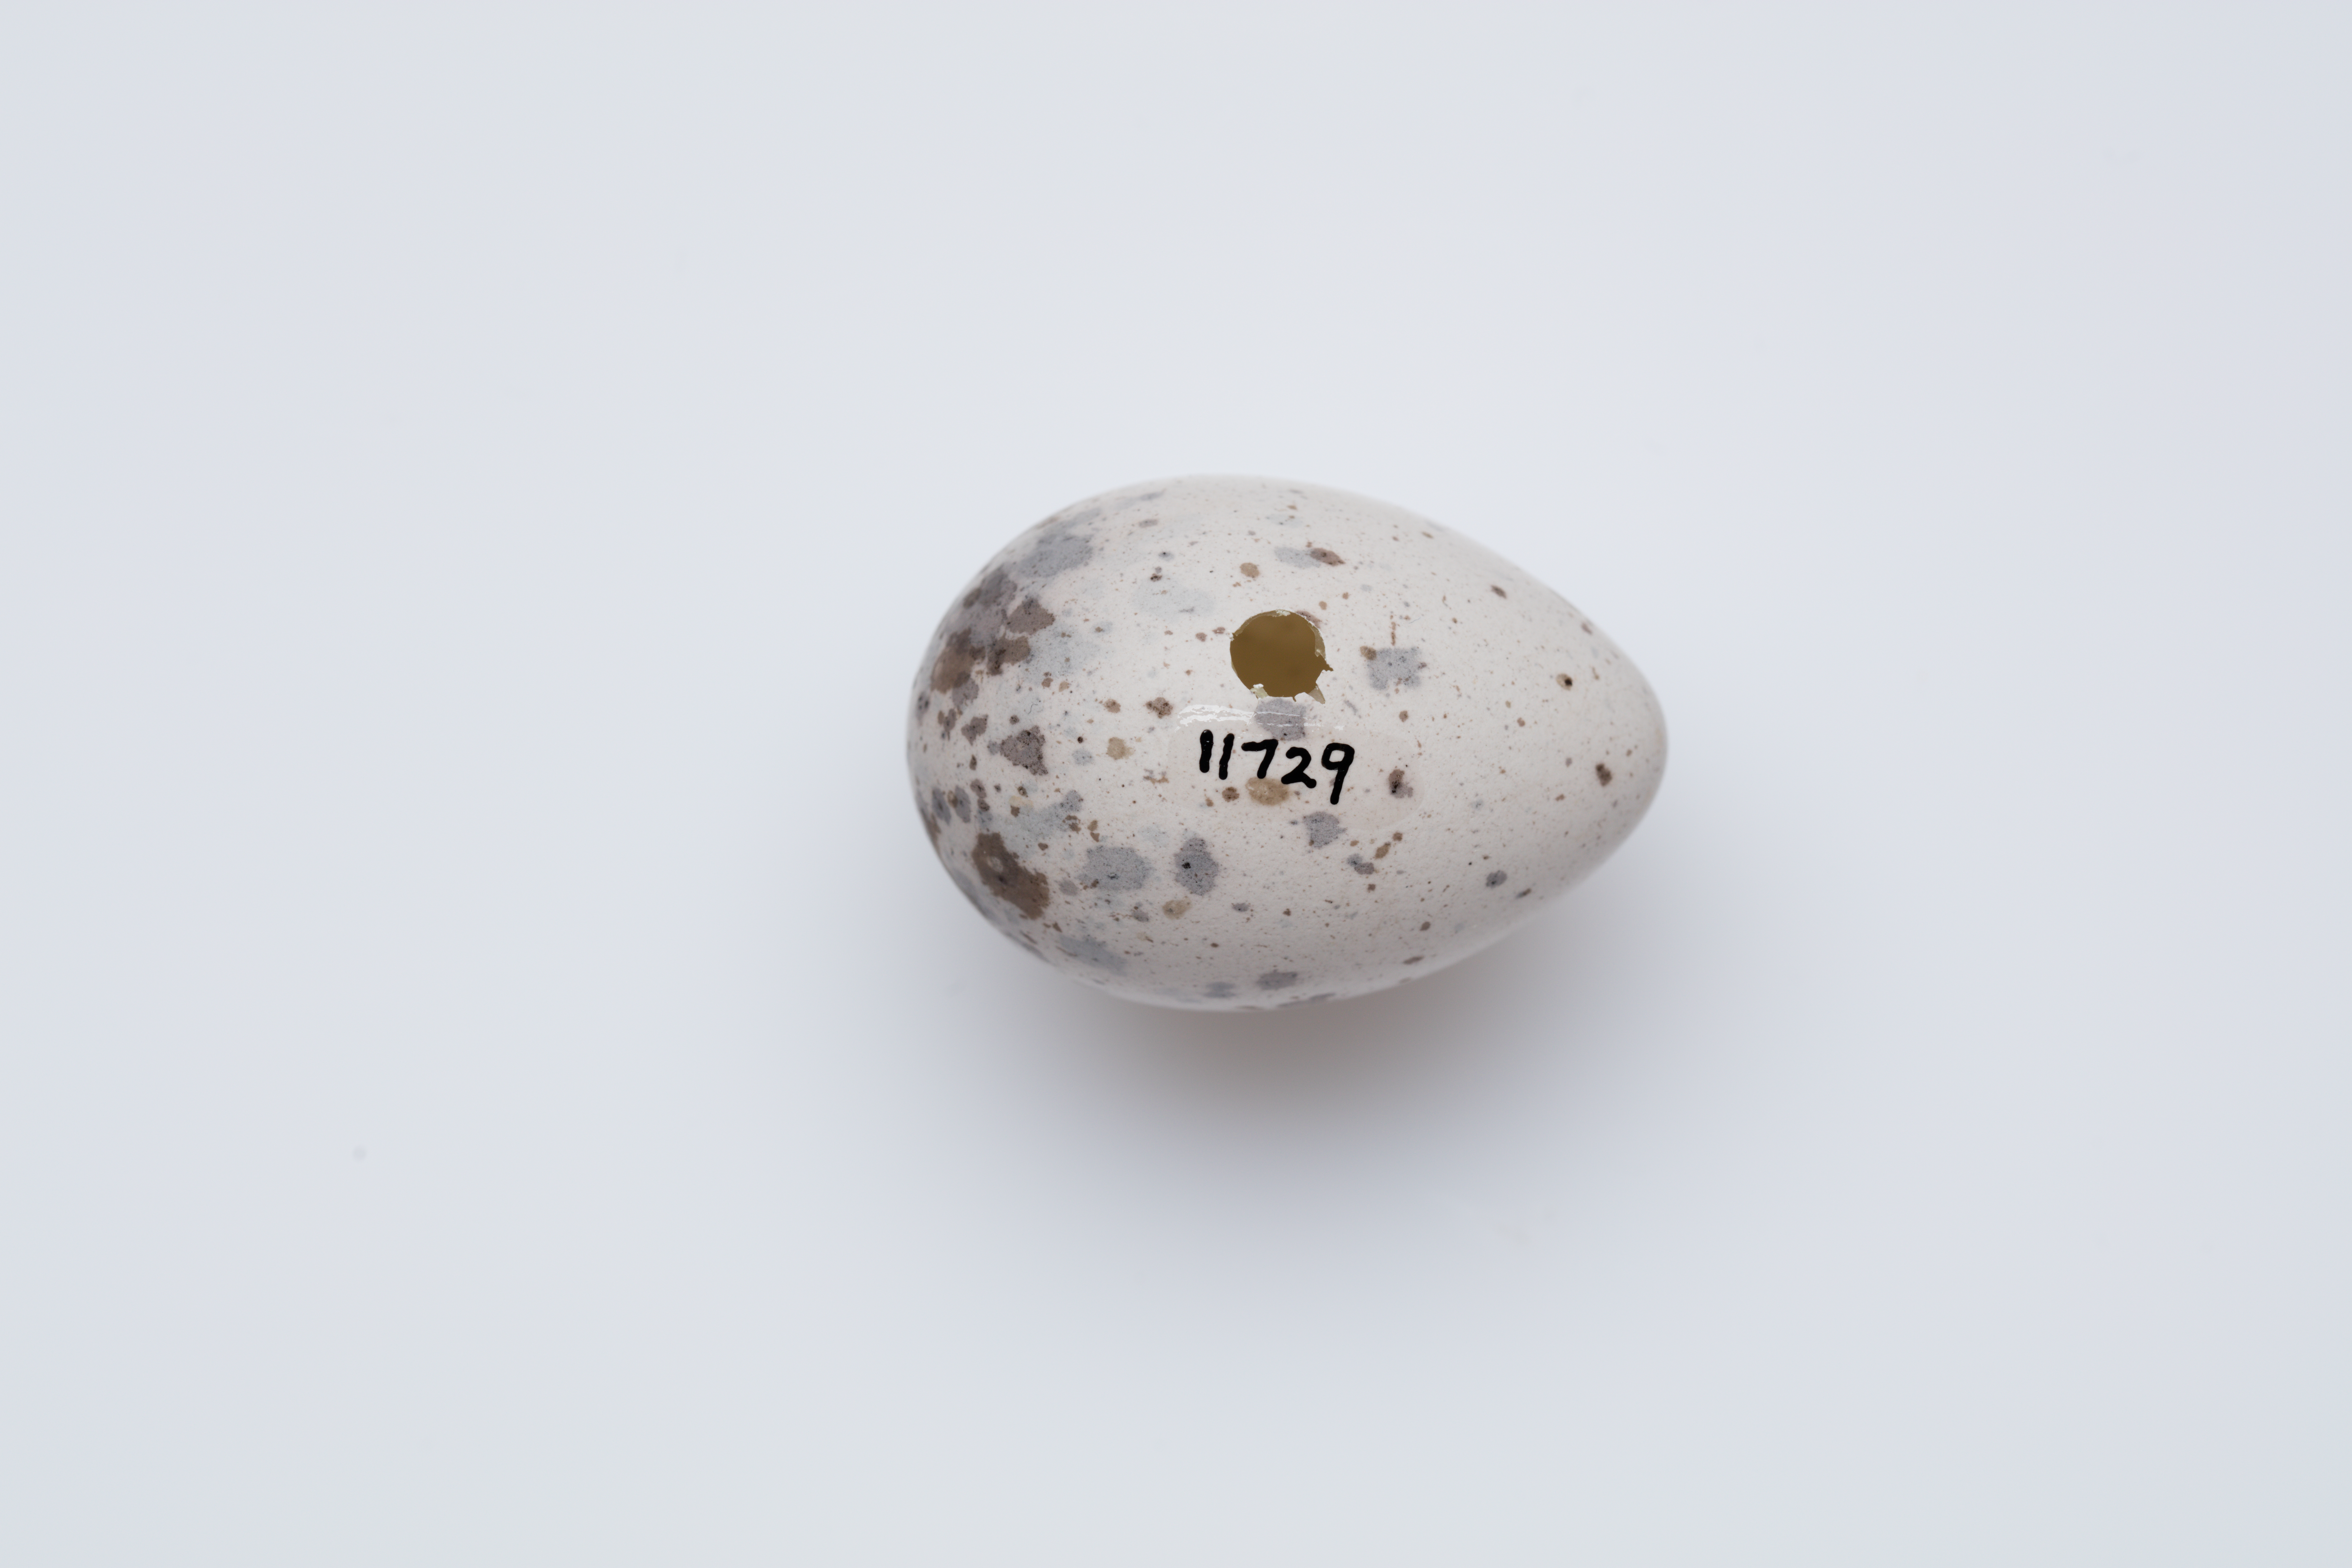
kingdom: Animalia
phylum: Chordata
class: Aves
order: Passeriformes
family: Callaeatidae
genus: Callaeas
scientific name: Callaeas cinereus
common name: South island kokako
